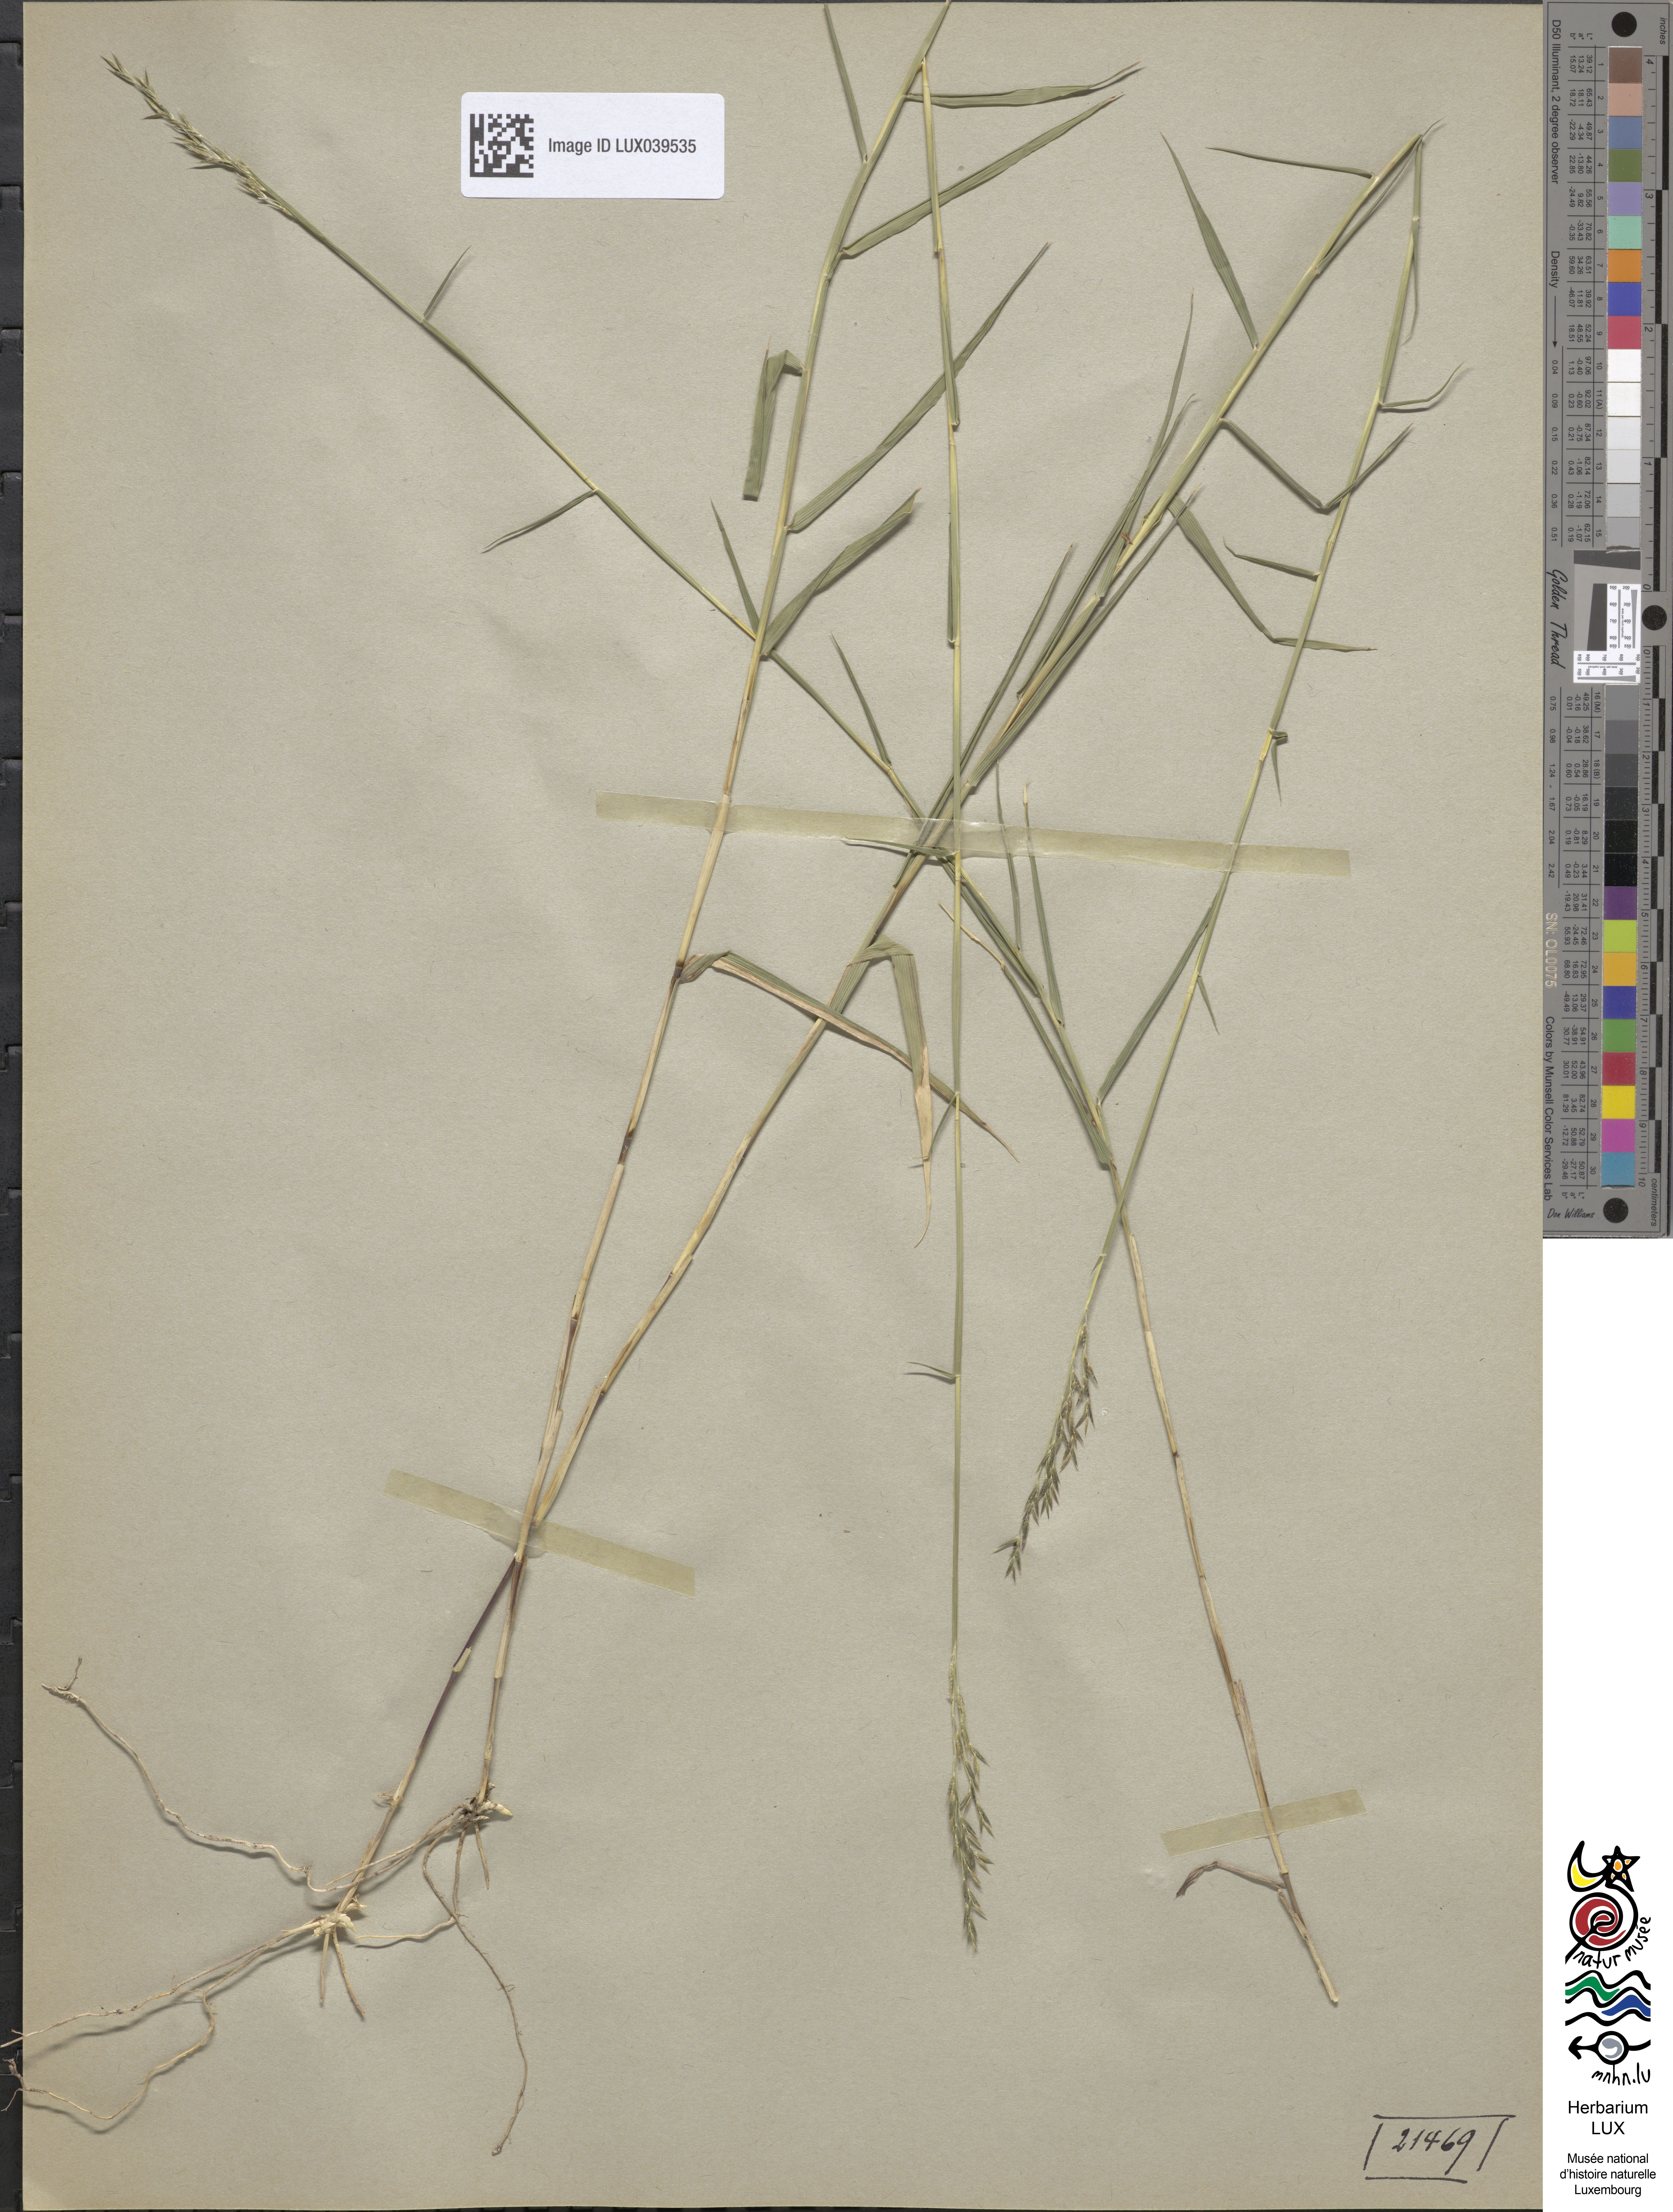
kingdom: Plantae
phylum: Tracheophyta
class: Liliopsida
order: Poales
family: Poaceae
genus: Cleistogenes
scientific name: Cleistogenes serotina
